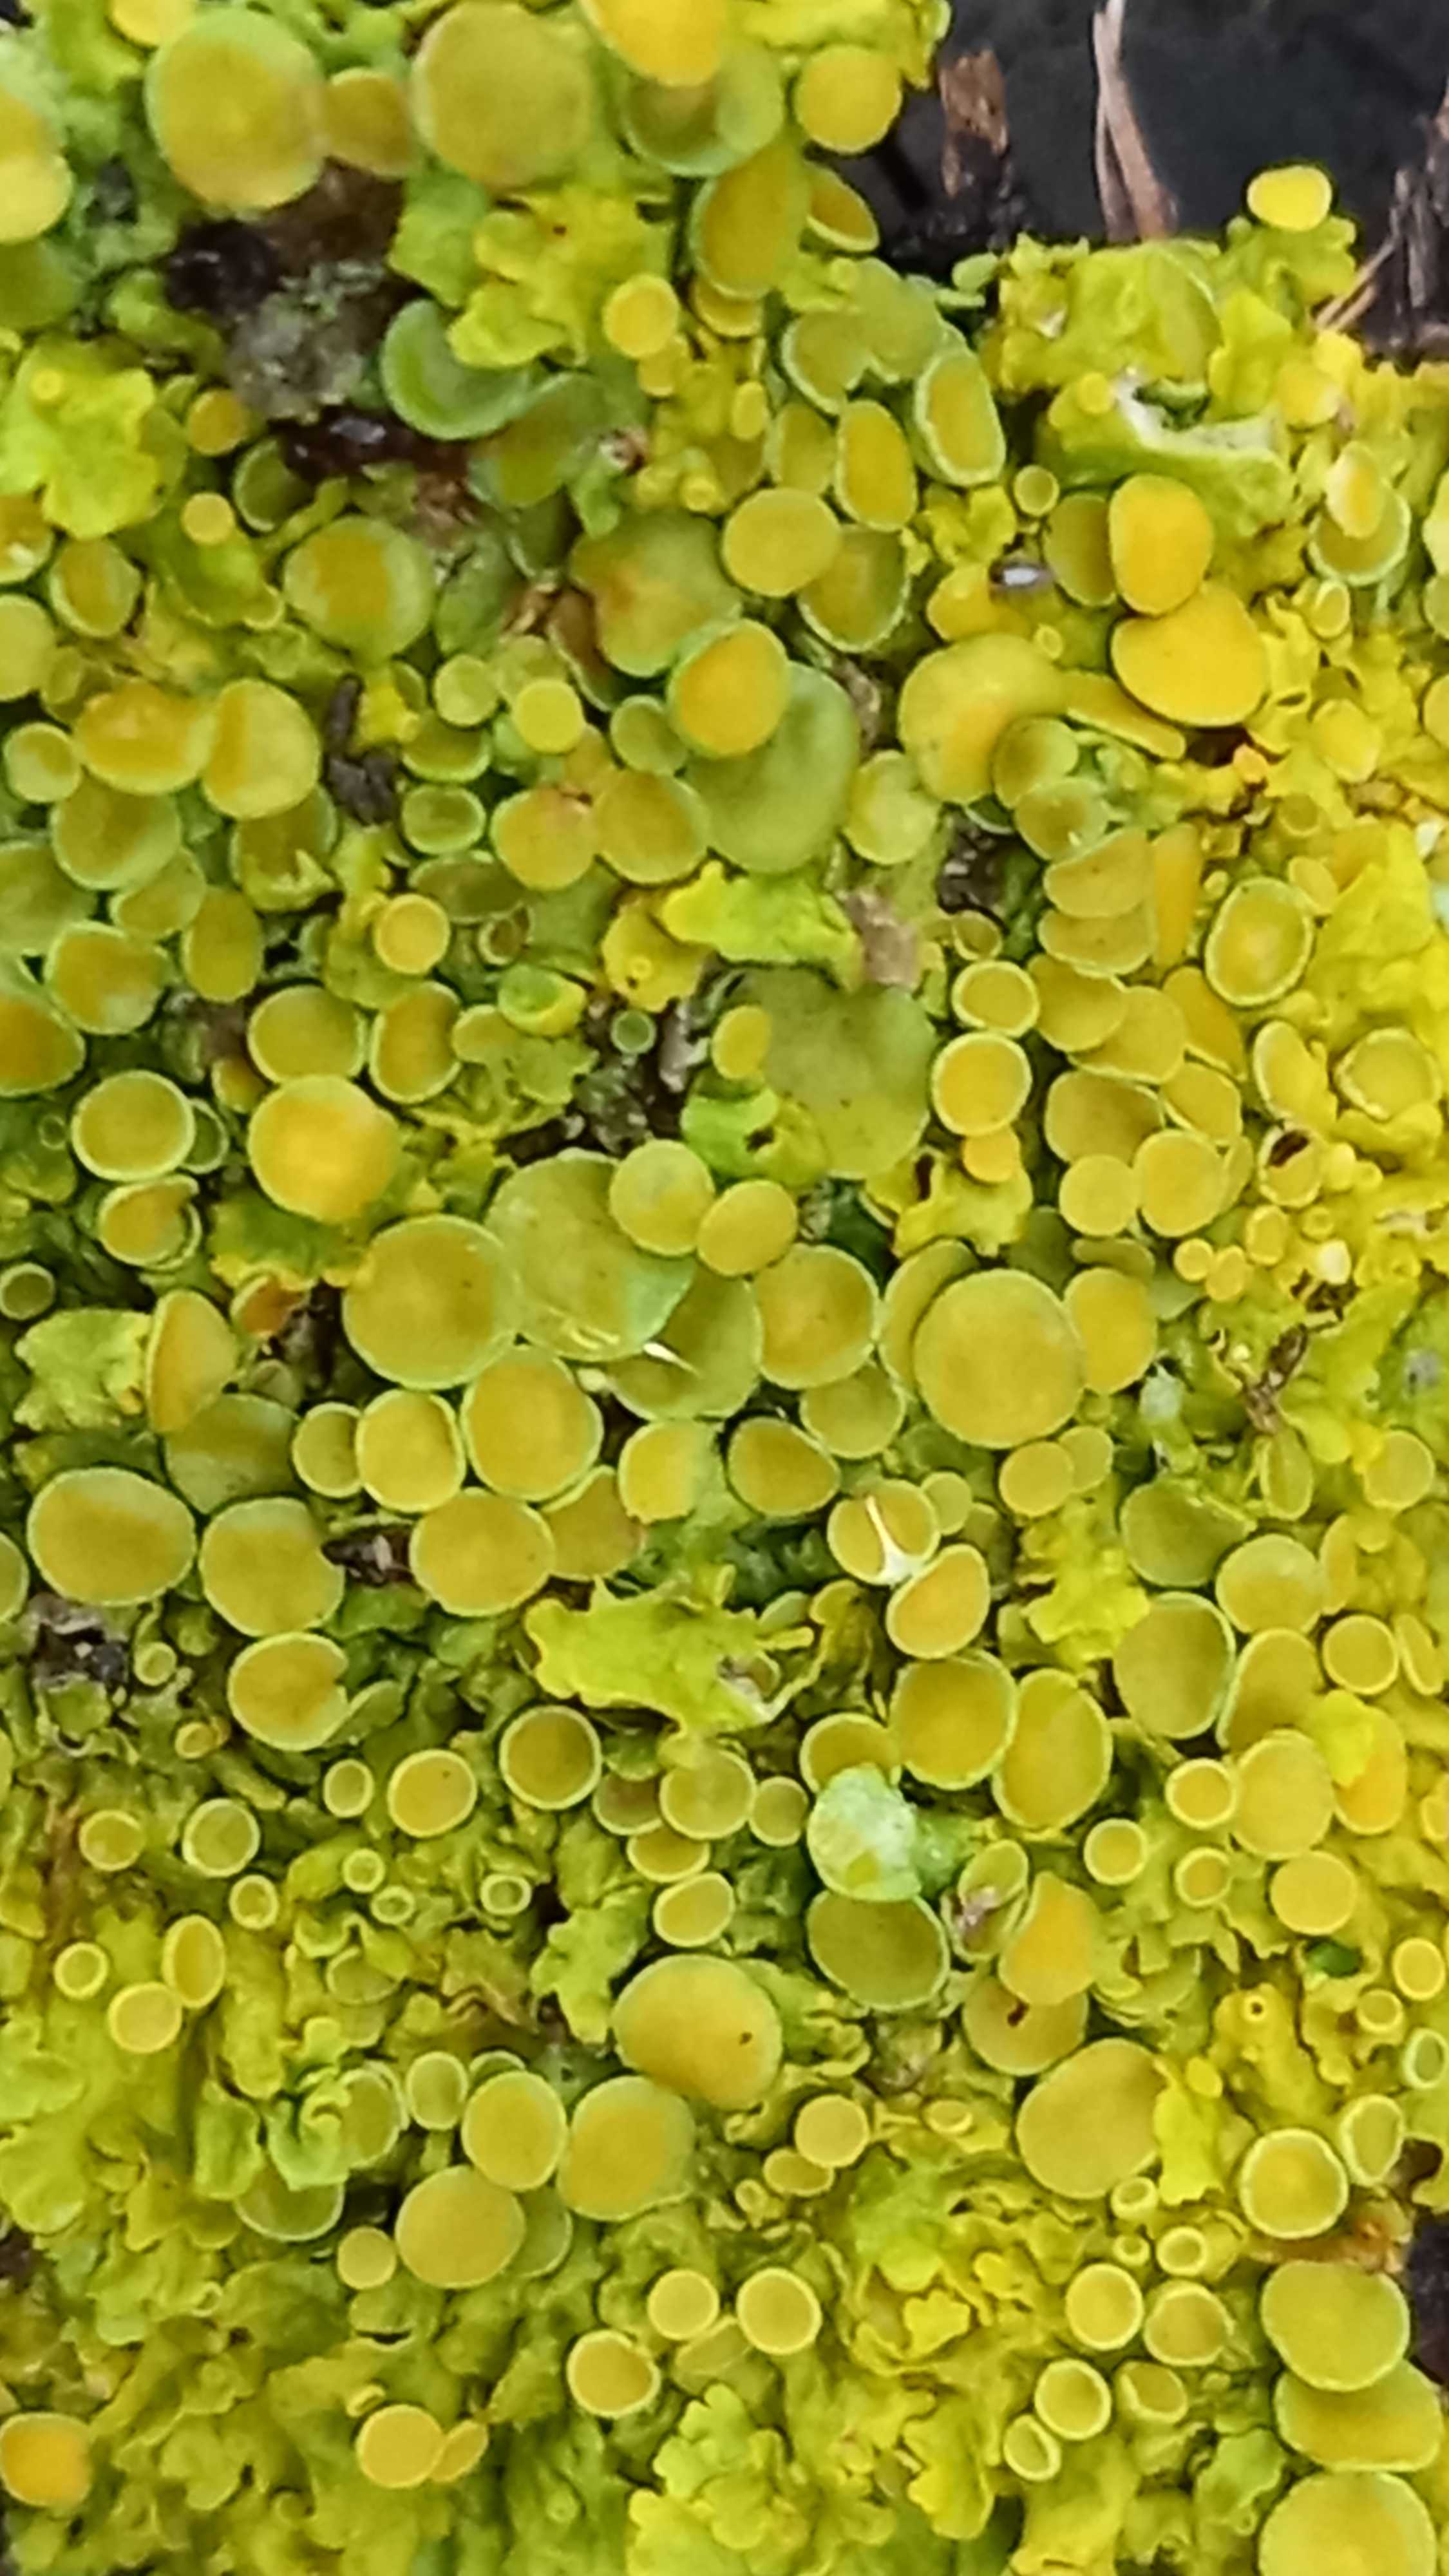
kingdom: Fungi
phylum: Ascomycota
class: Lecanoromycetes
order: Teloschistales
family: Teloschistaceae
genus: Xanthoria
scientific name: Xanthoria parietina
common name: almindelig væggelav
